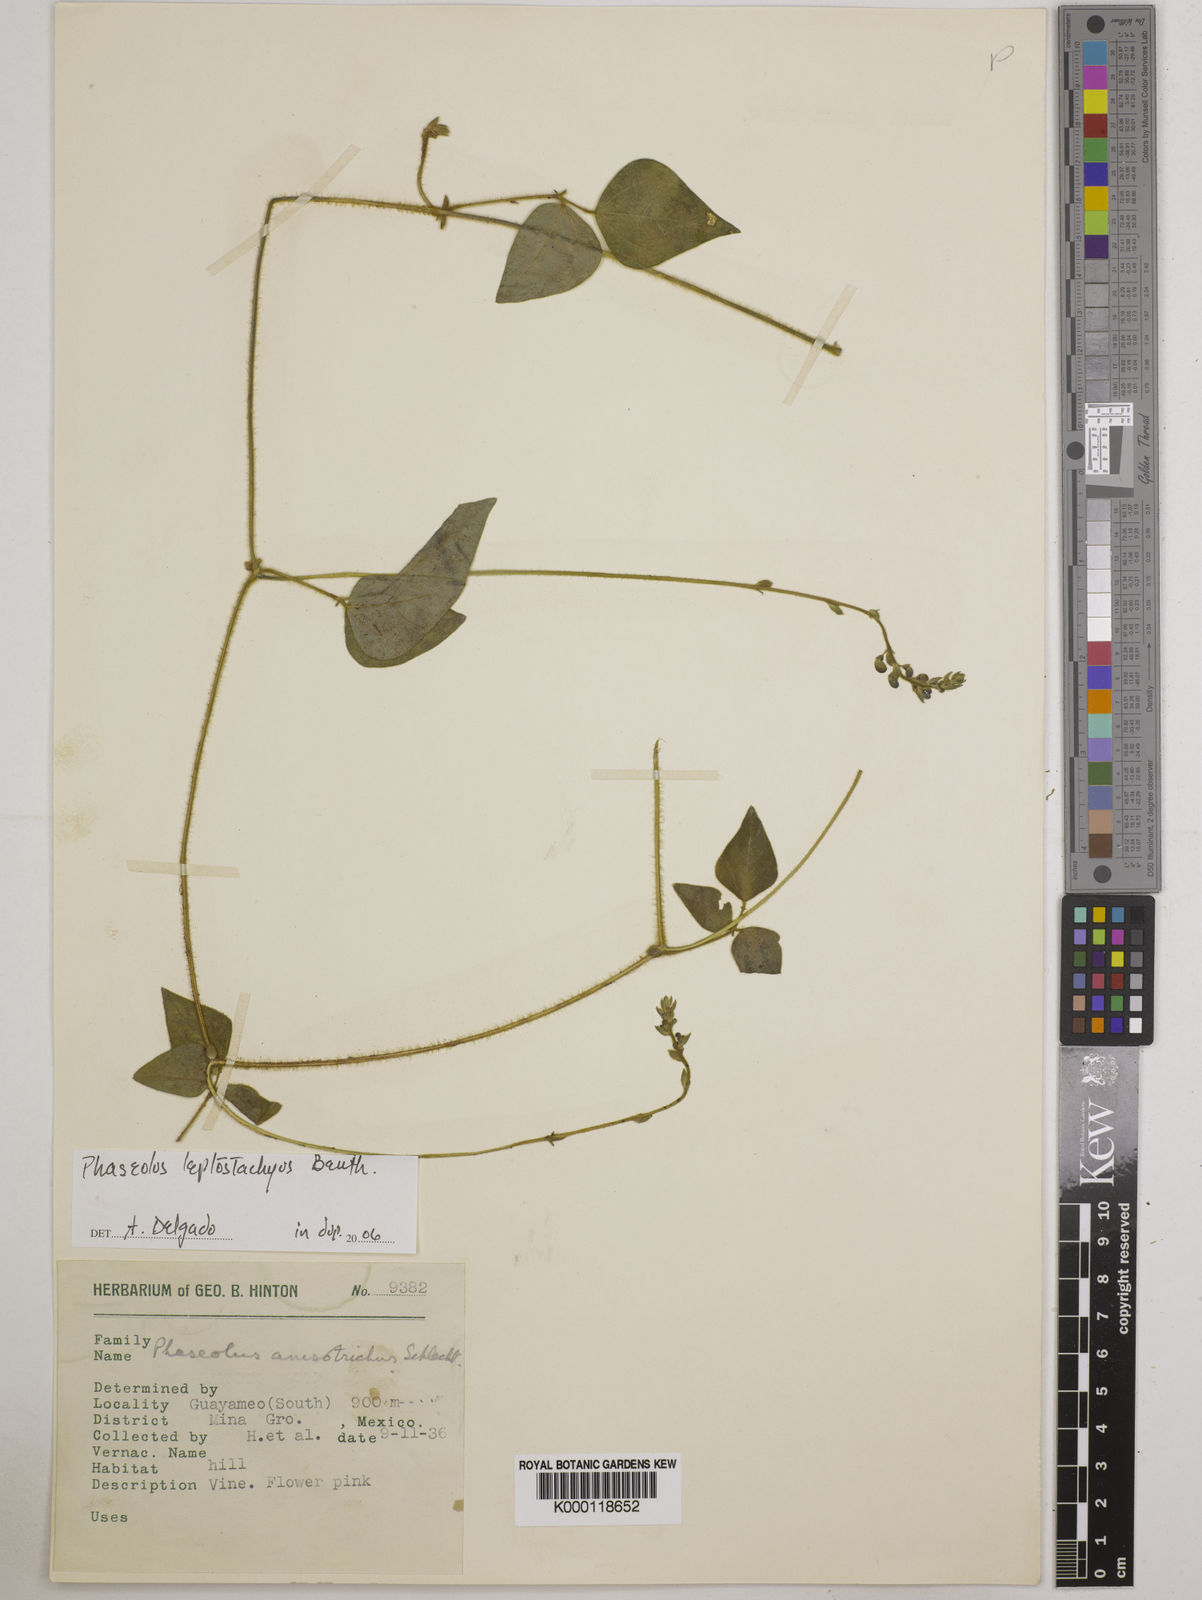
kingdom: Plantae
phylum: Tracheophyta
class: Magnoliopsida
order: Fabales
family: Fabaceae
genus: Phaseolus
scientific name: Phaseolus
